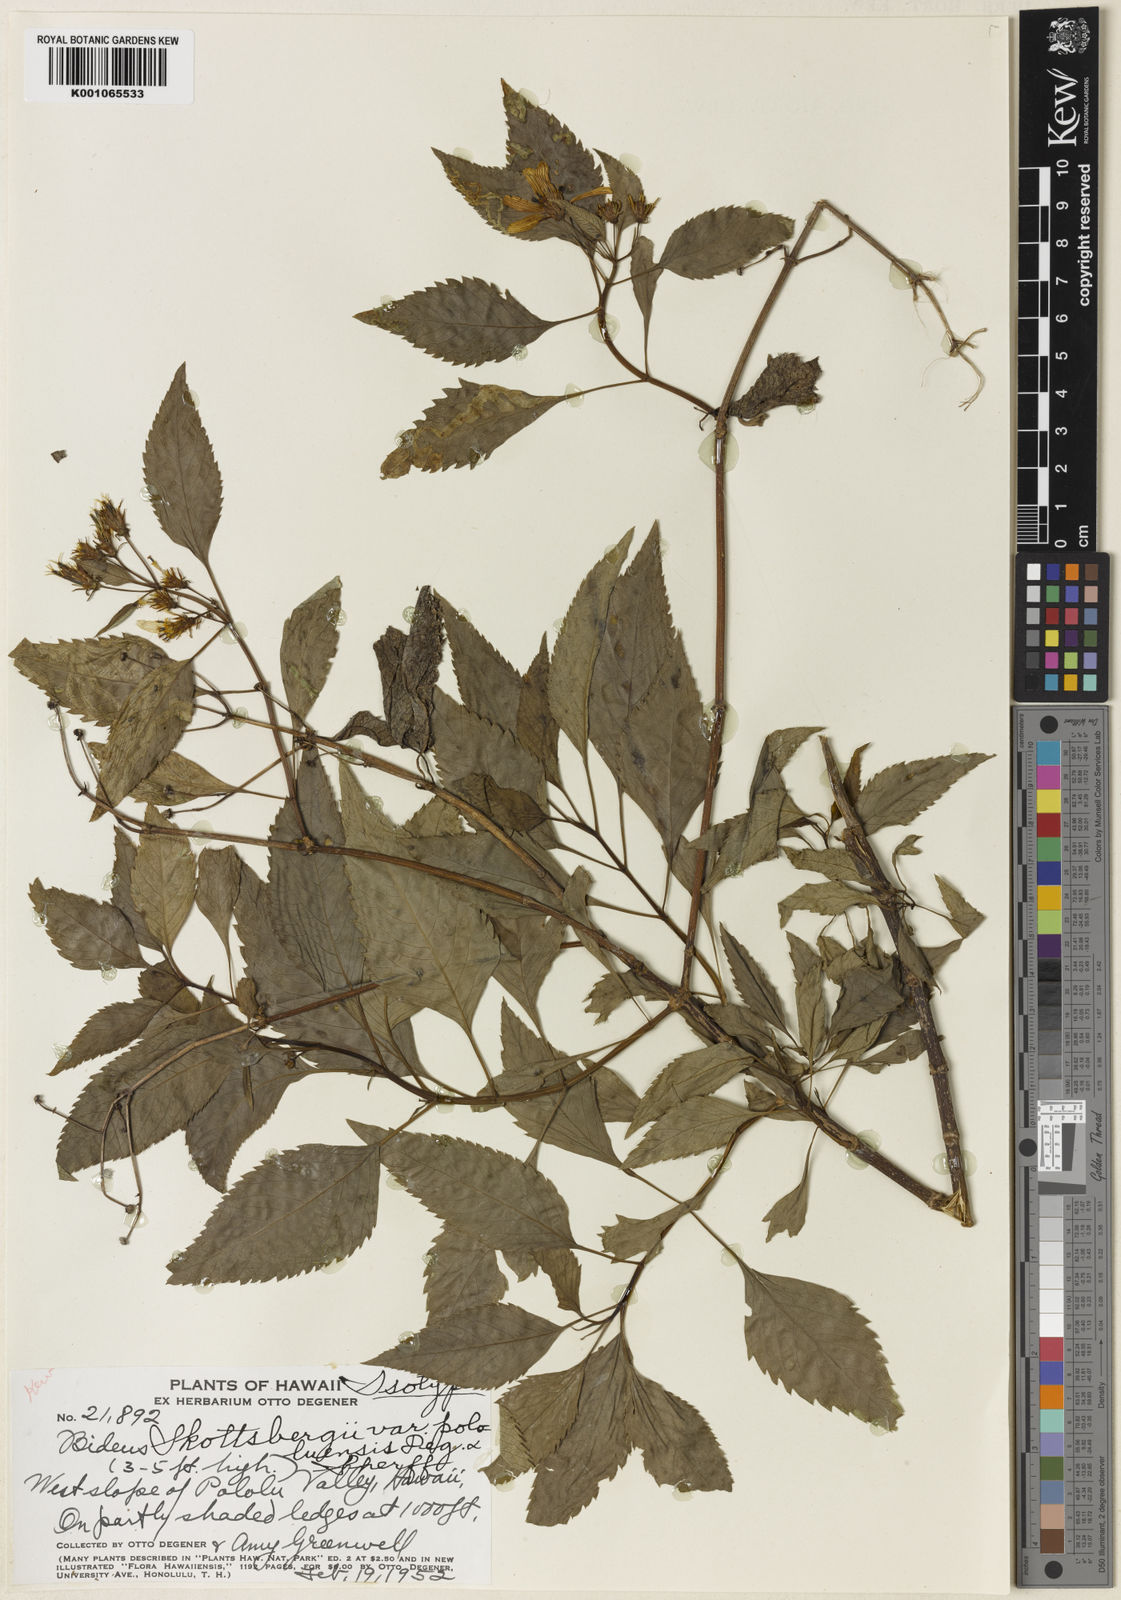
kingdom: Plantae
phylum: Tracheophyta
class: Magnoliopsida
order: Asterales
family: Asteraceae
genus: Bidens
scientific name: Bidens
